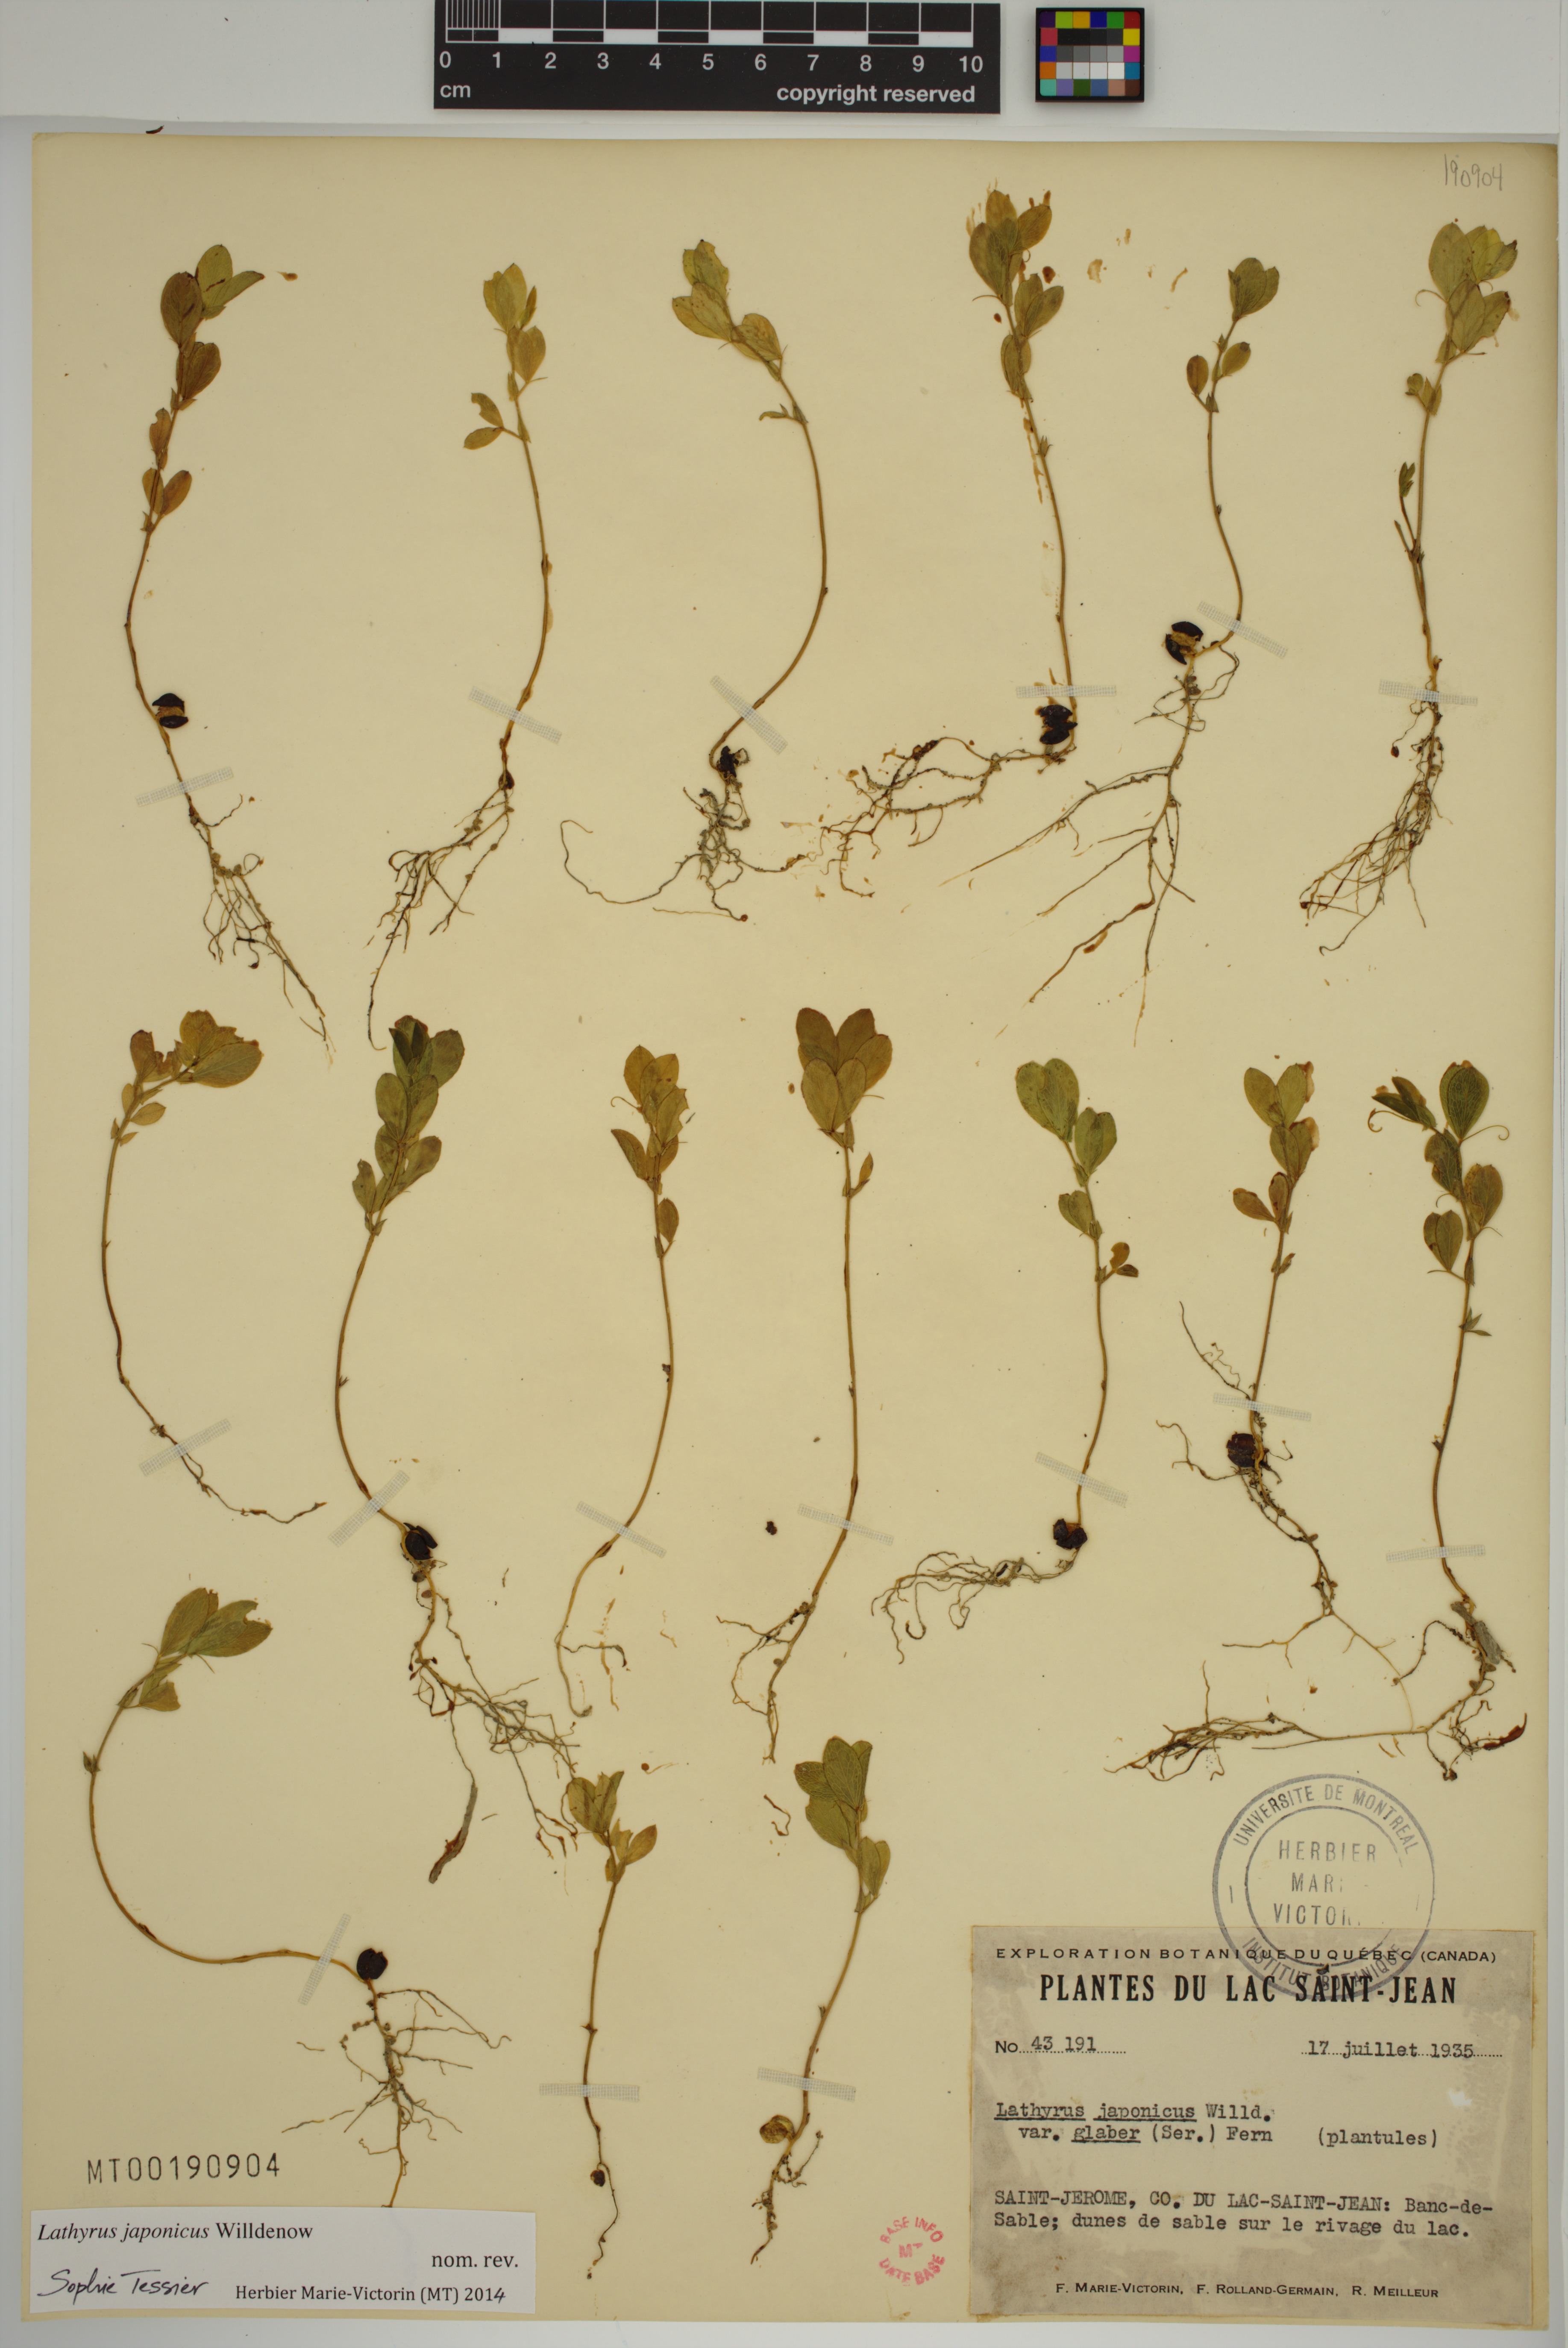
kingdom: Plantae
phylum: Tracheophyta
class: Magnoliopsida
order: Fabales
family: Fabaceae
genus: Lathyrus
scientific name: Lathyrus japonicus
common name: Sea pea
